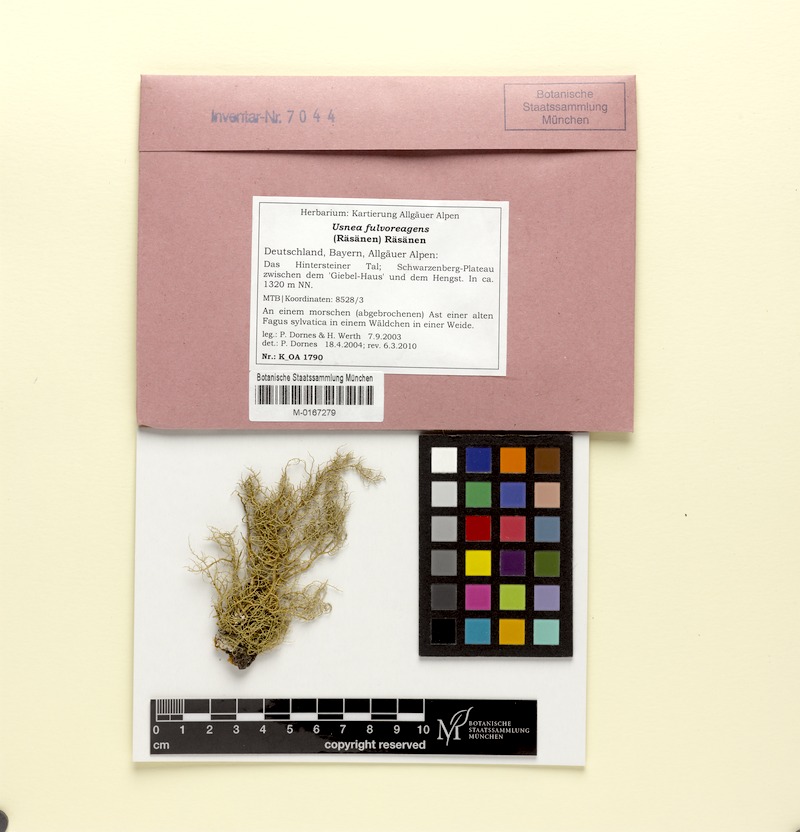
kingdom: Fungi
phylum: Ascomycota
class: Lecanoromycetes
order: Lecanorales
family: Parmeliaceae
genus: Usnea
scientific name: Usnea fulvoreagens
